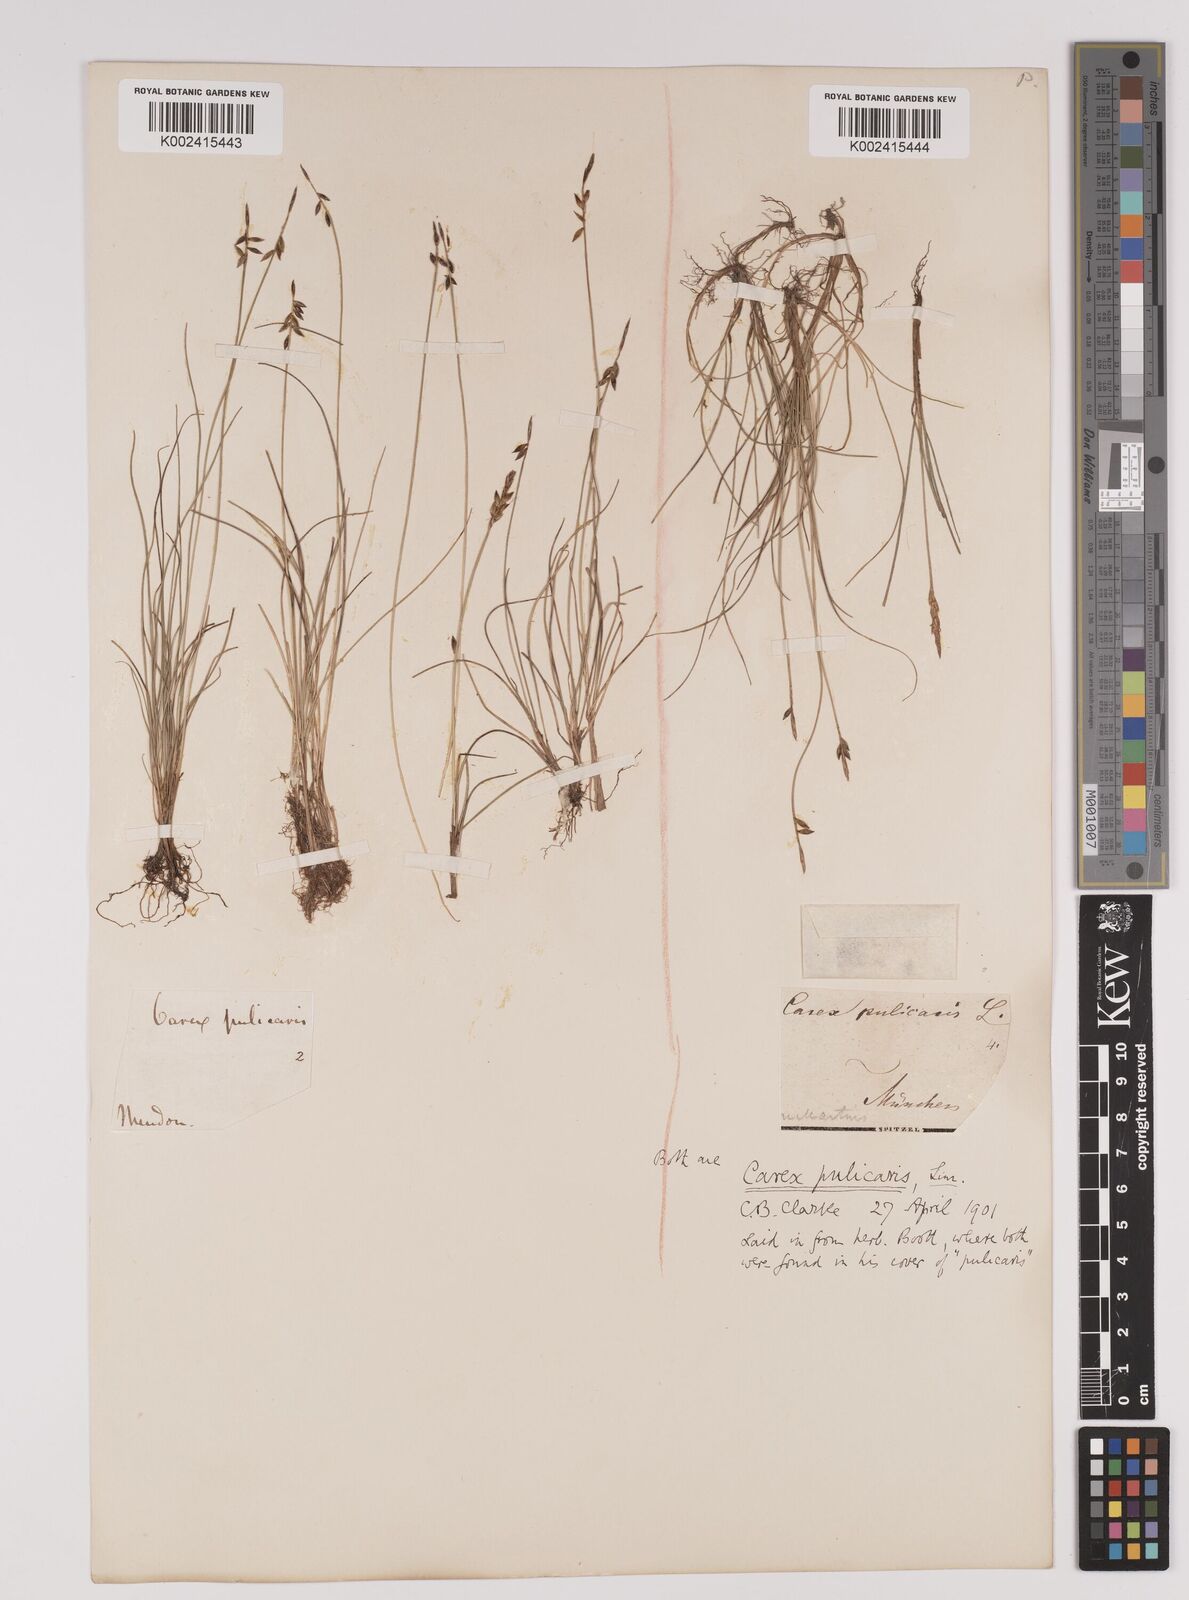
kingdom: Plantae
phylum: Tracheophyta
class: Liliopsida
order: Poales
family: Cyperaceae
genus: Carex
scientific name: Carex pulicaris
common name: Flea sedge
